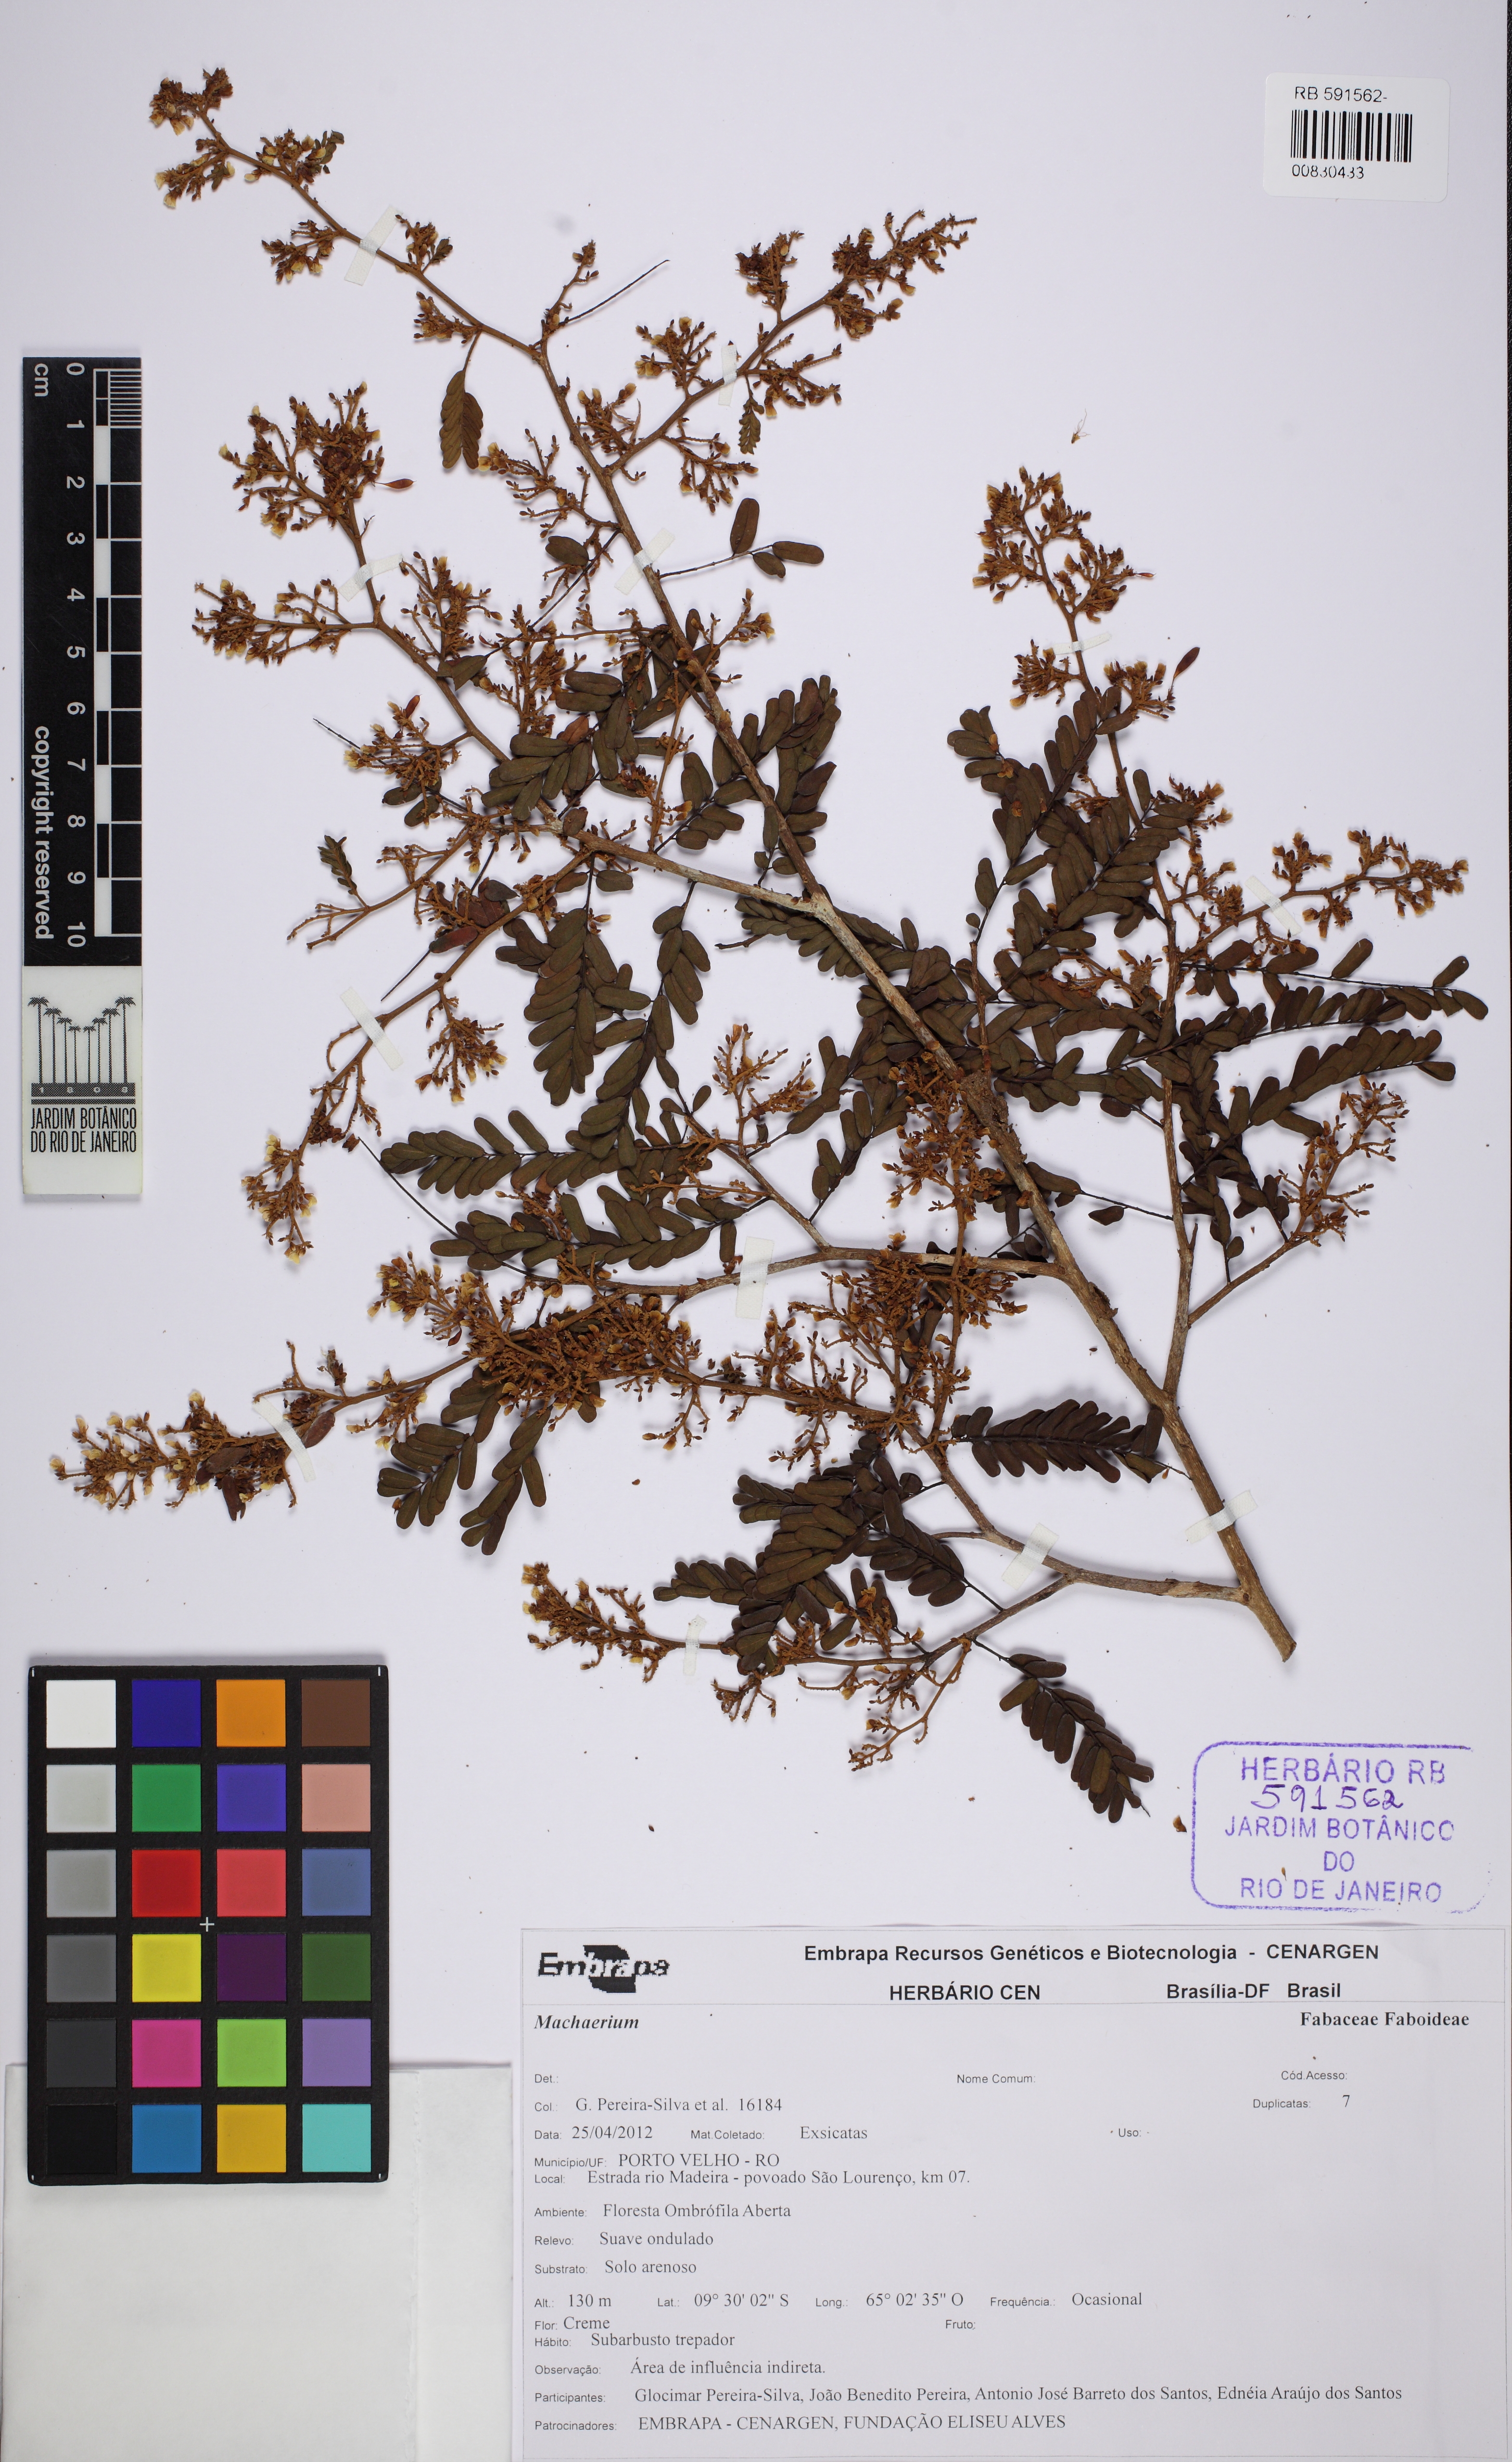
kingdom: Plantae
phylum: Tracheophyta
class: Magnoliopsida
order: Fabales
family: Fabaceae
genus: Machaerium
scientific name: Machaerium
